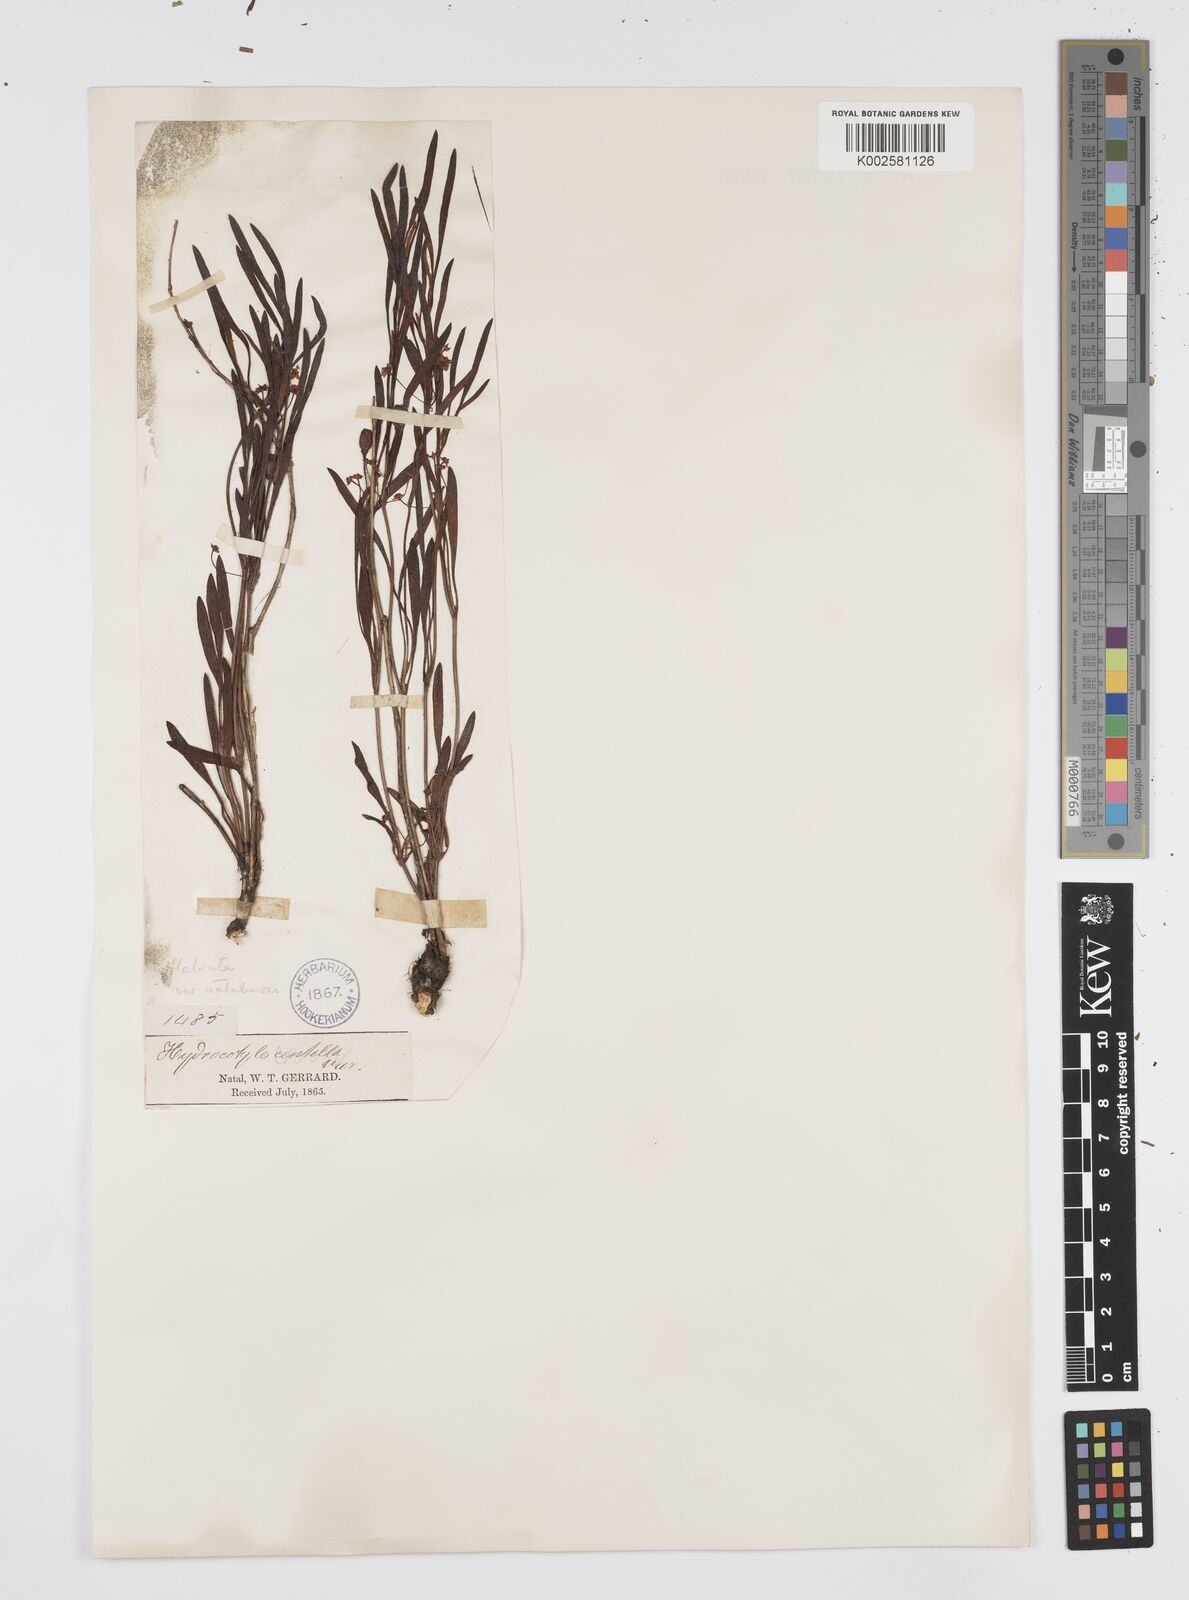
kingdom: Plantae
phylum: Tracheophyta
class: Magnoliopsida
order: Apiales
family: Apiaceae
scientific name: Apiaceae
